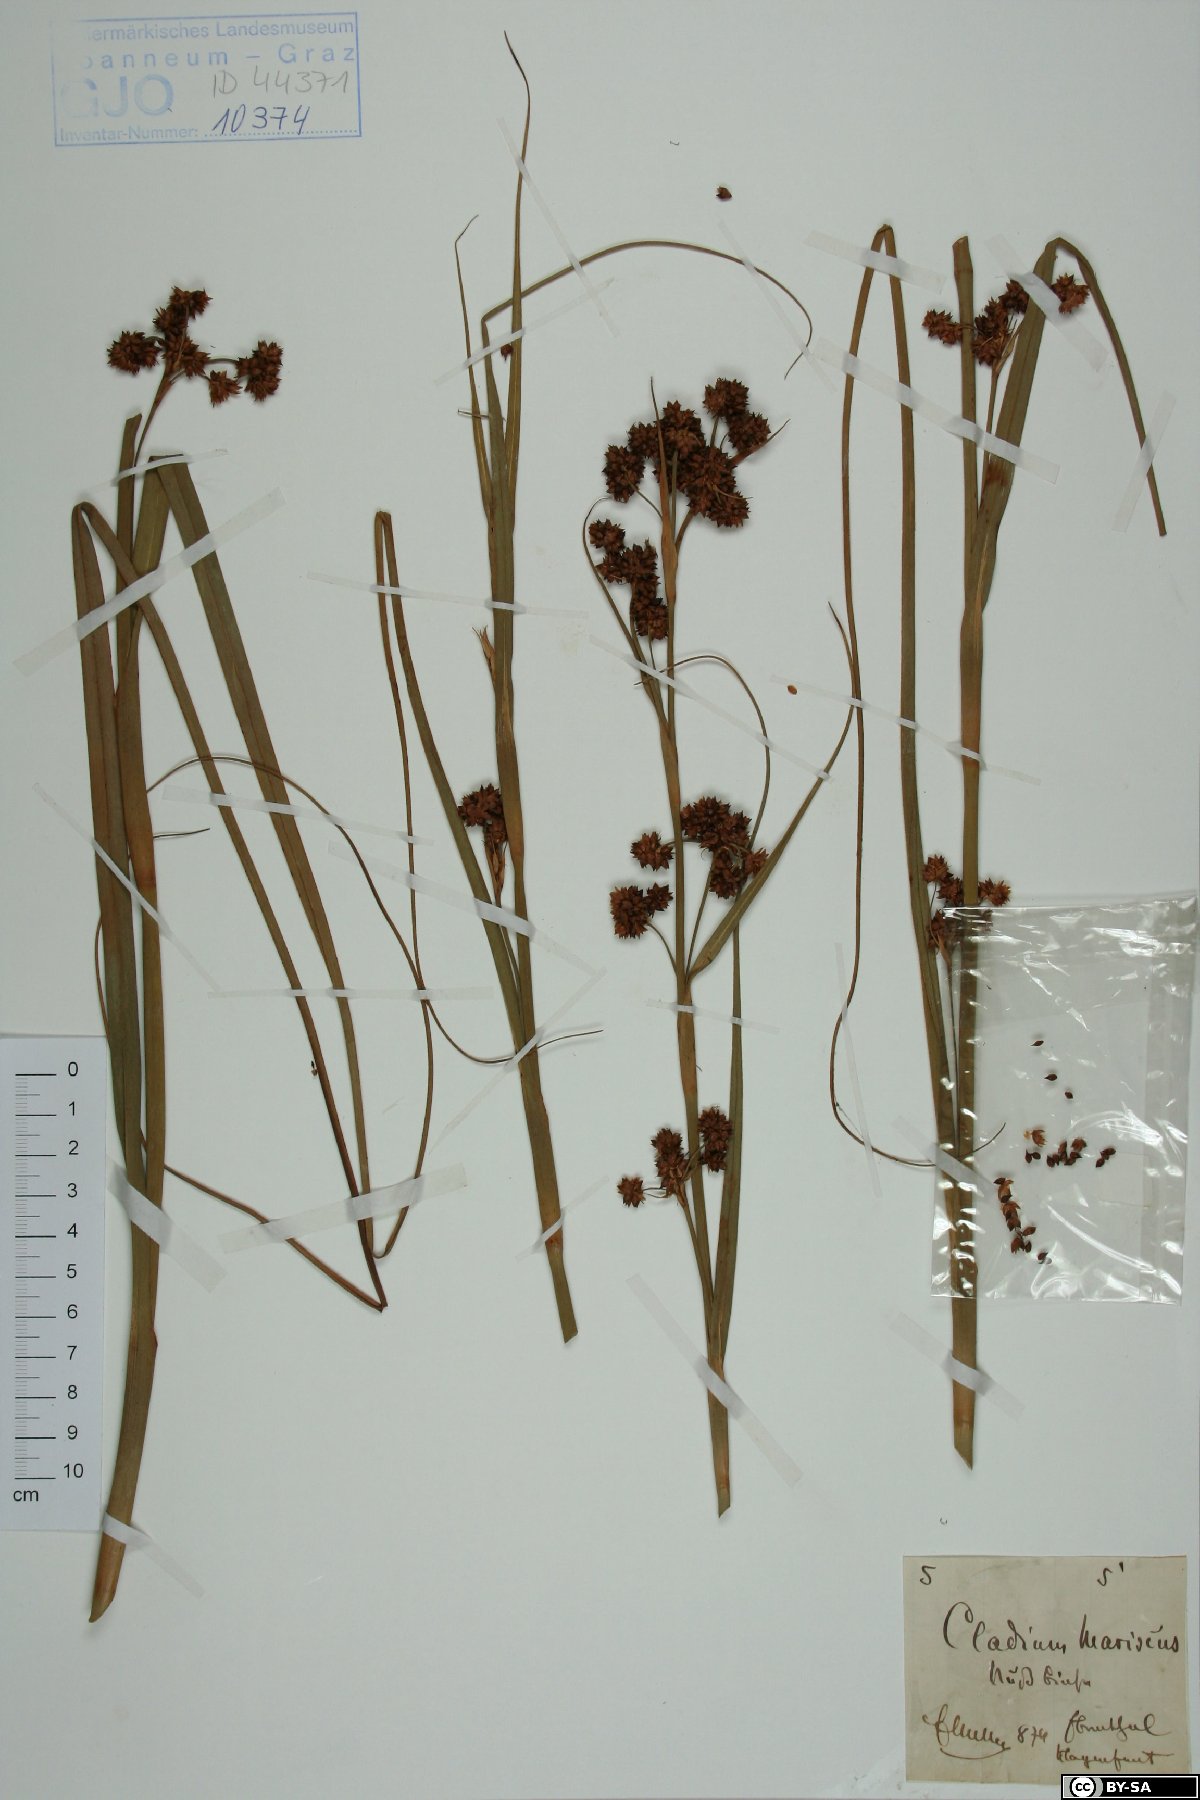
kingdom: Plantae
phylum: Tracheophyta
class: Liliopsida
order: Poales
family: Cyperaceae
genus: Cladium
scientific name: Cladium mariscus
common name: Great fen-sedge
